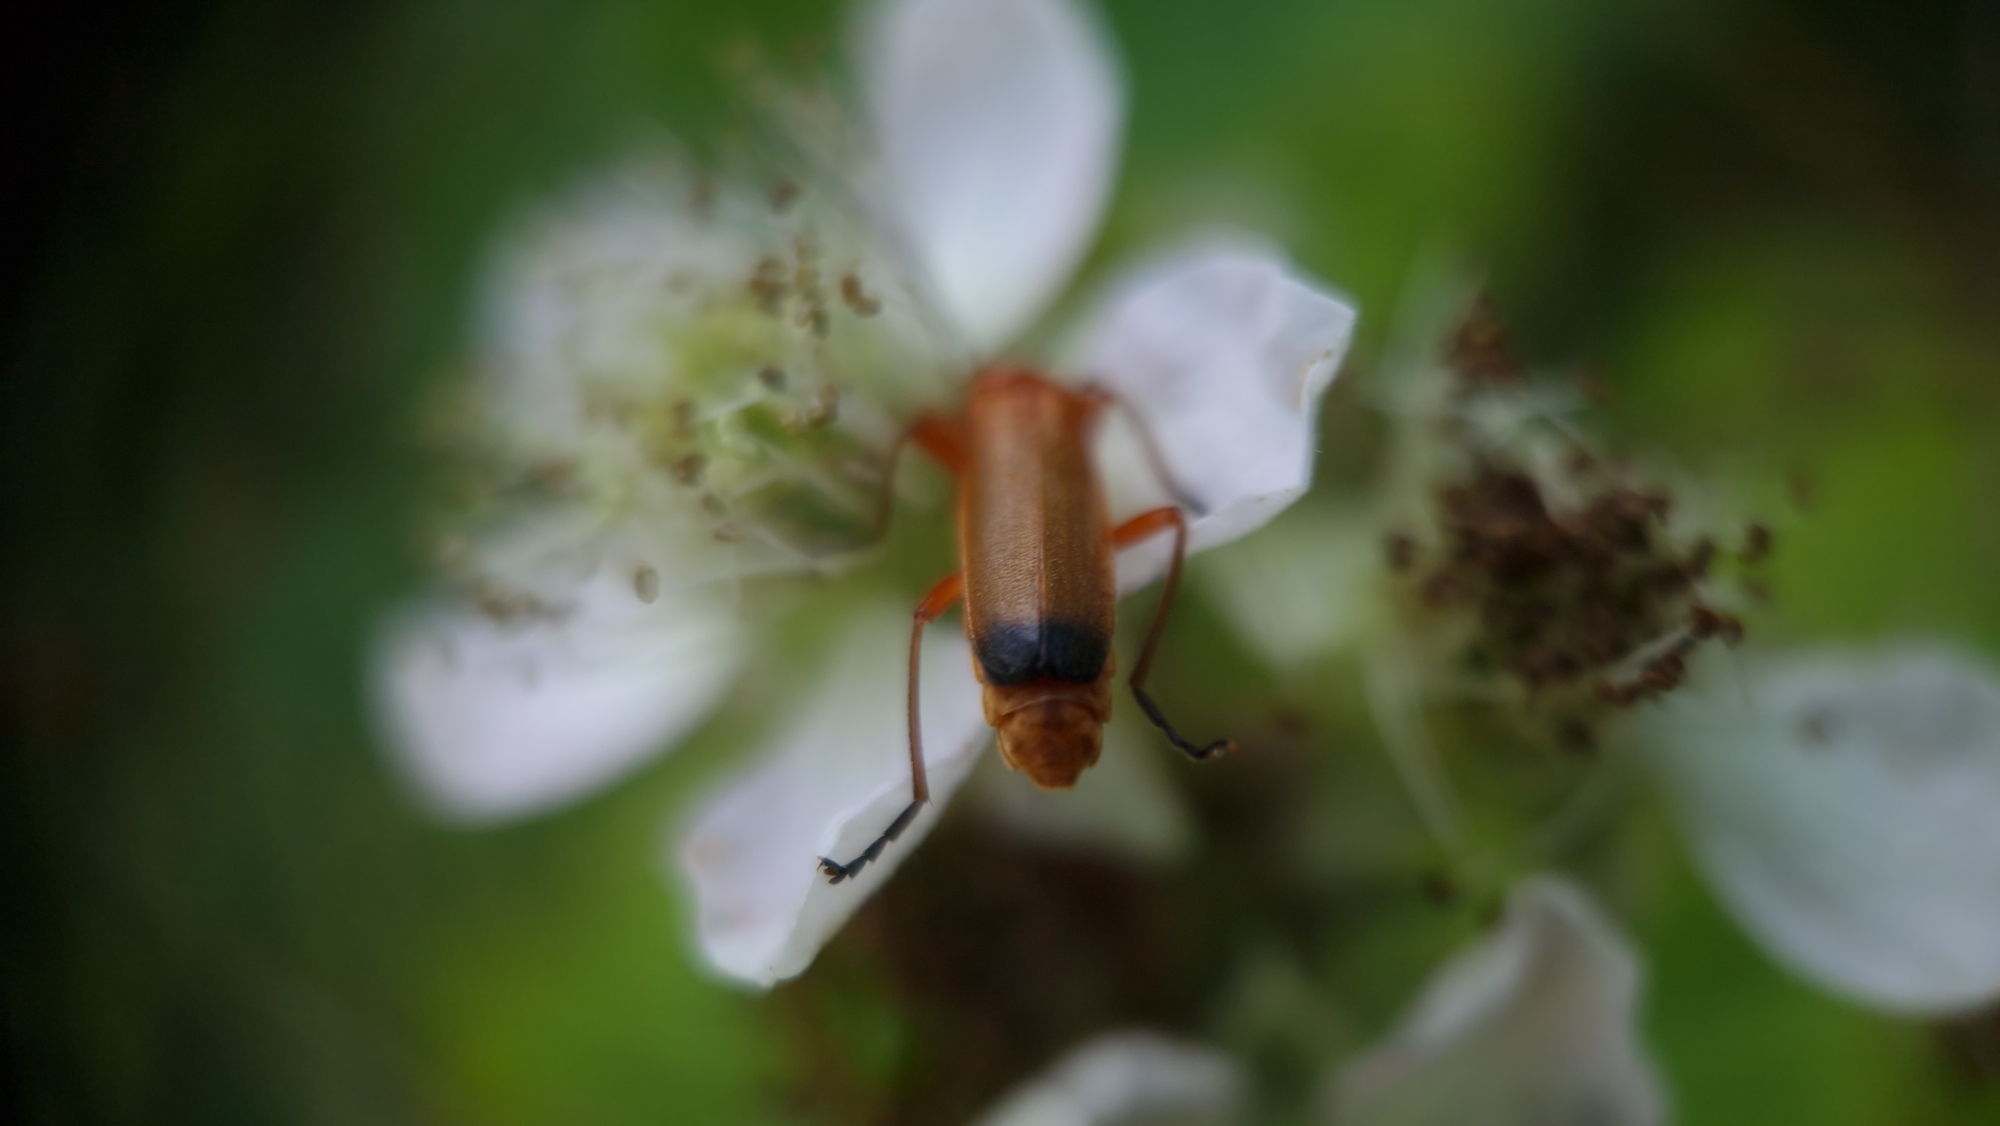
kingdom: Animalia
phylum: Arthropoda
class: Insecta
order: Coleoptera
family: Cantharidae
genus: Rhagonycha
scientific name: Rhagonycha fulva
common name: Præstebille
